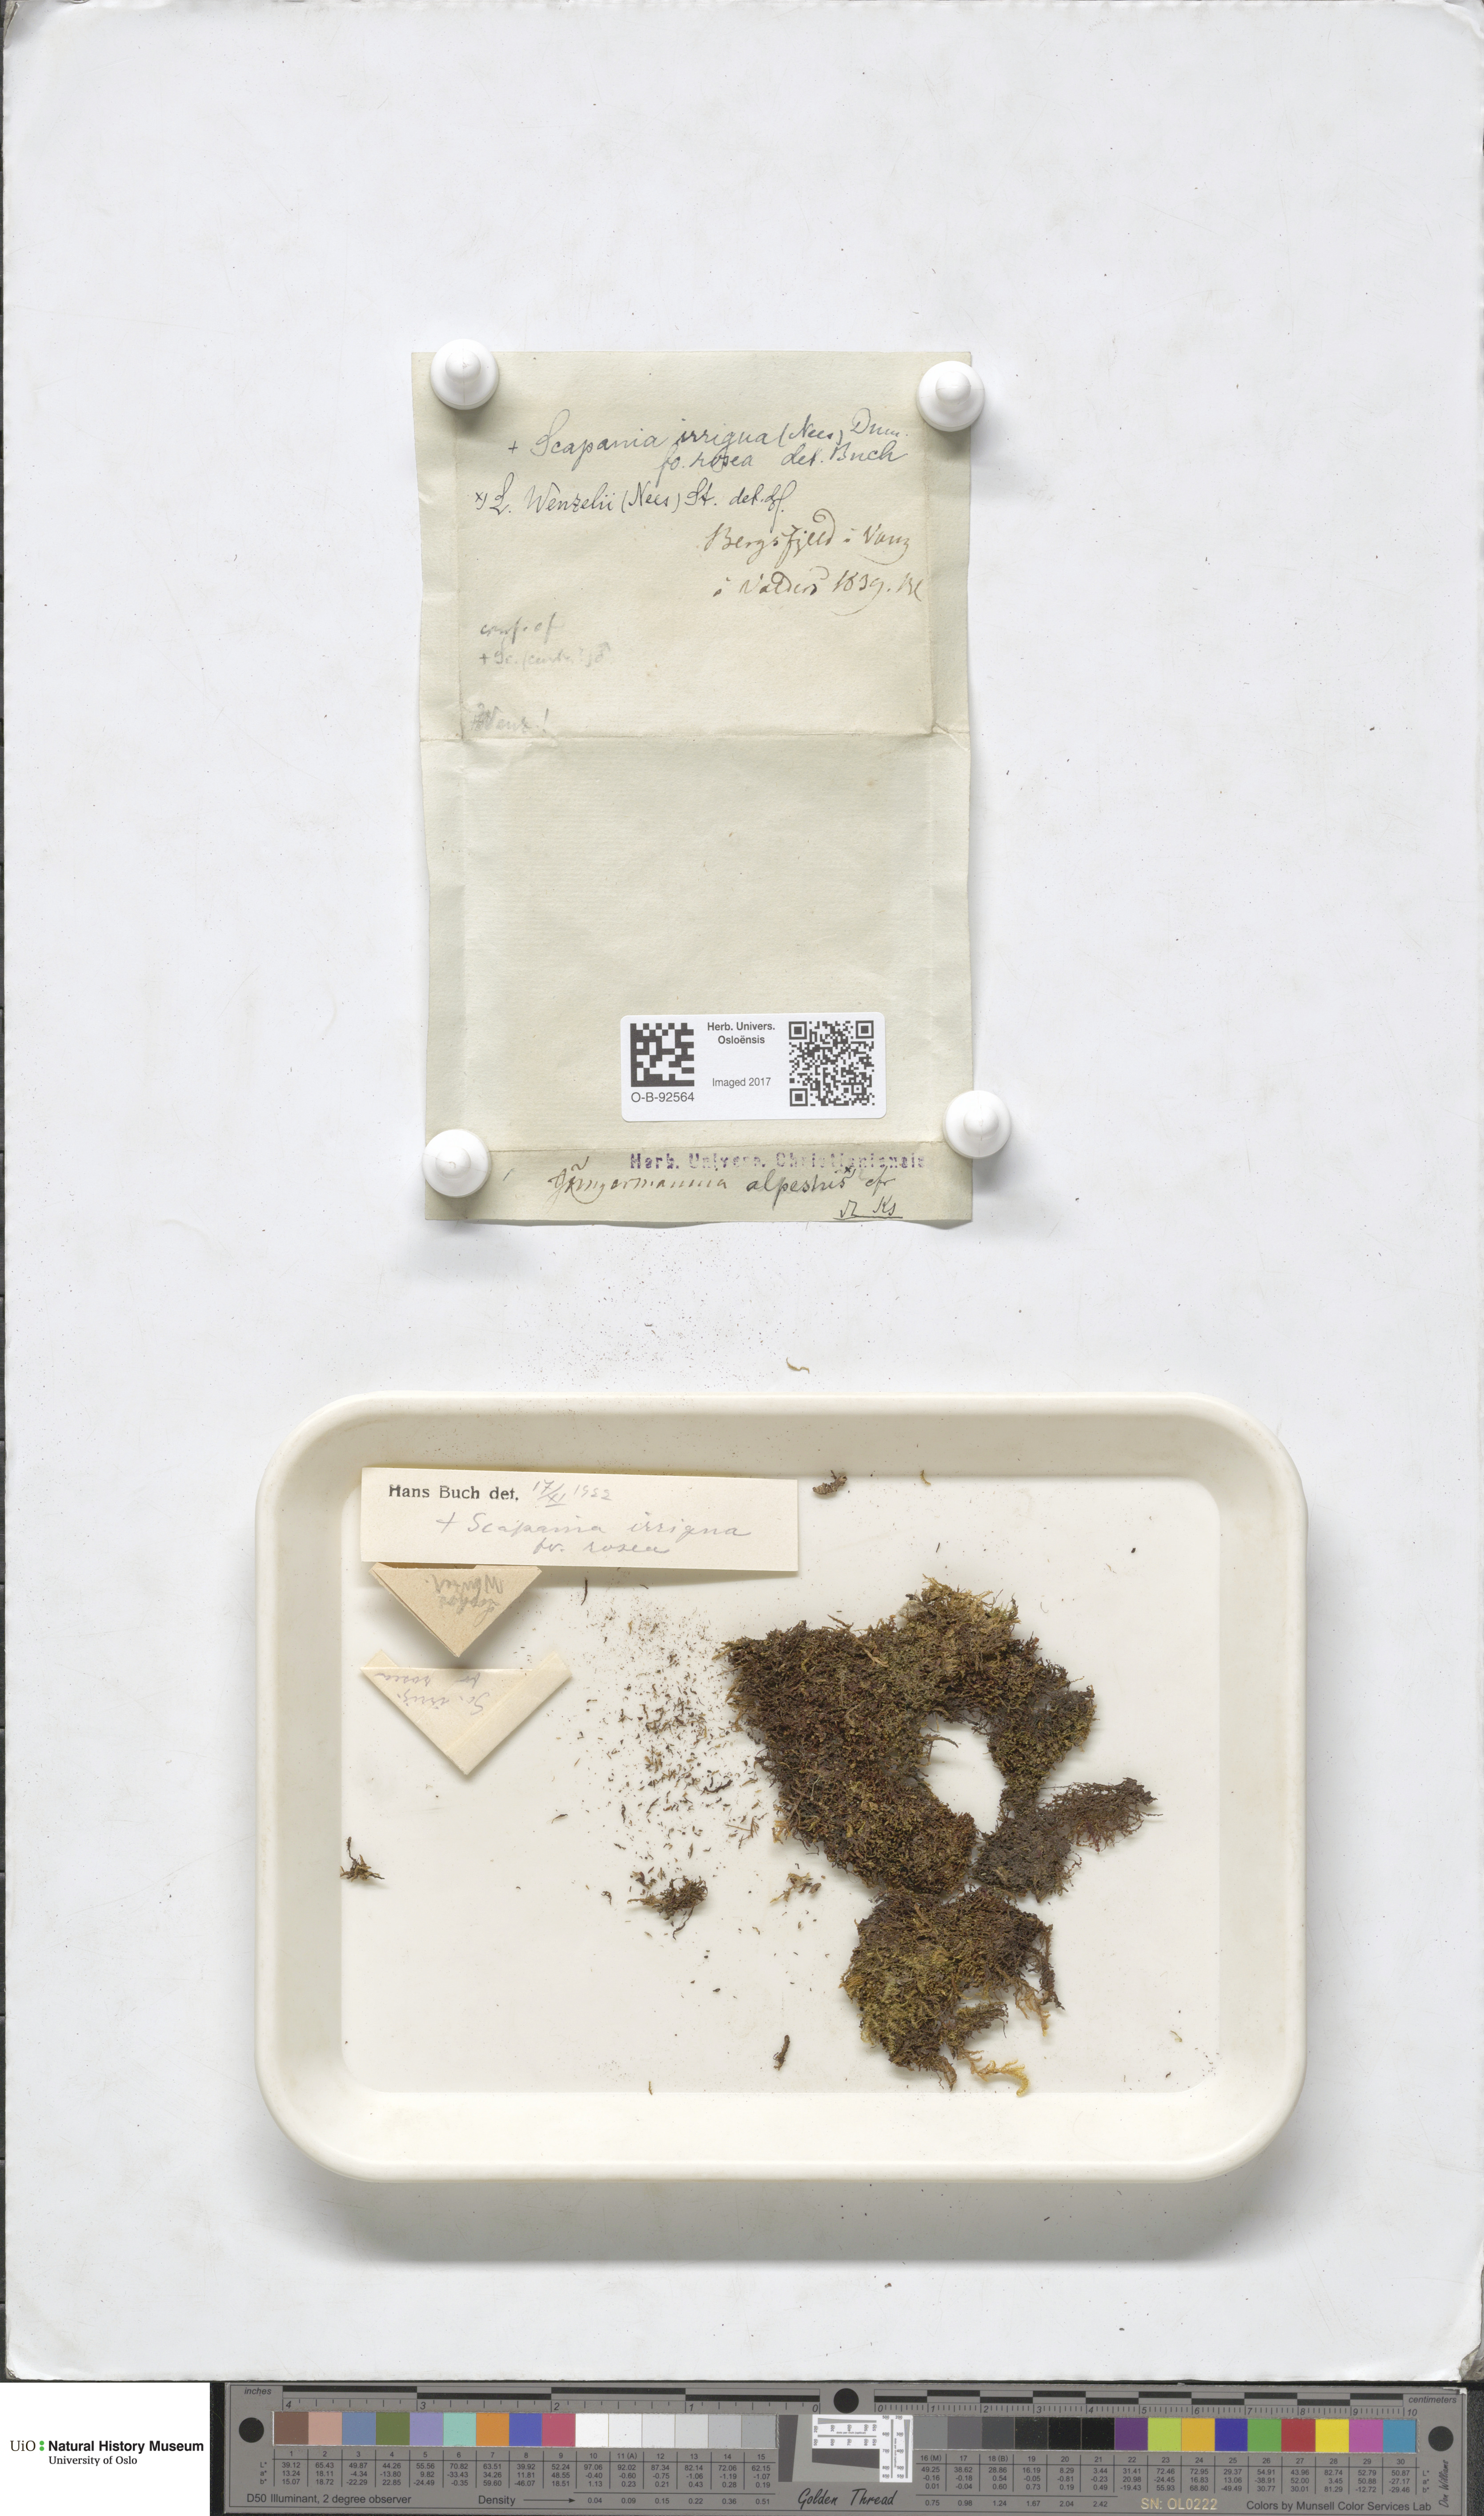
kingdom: Plantae
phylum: Marchantiophyta
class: Jungermanniopsida
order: Jungermanniales
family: Lophoziaceae
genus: Lophozia
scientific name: Lophozia
